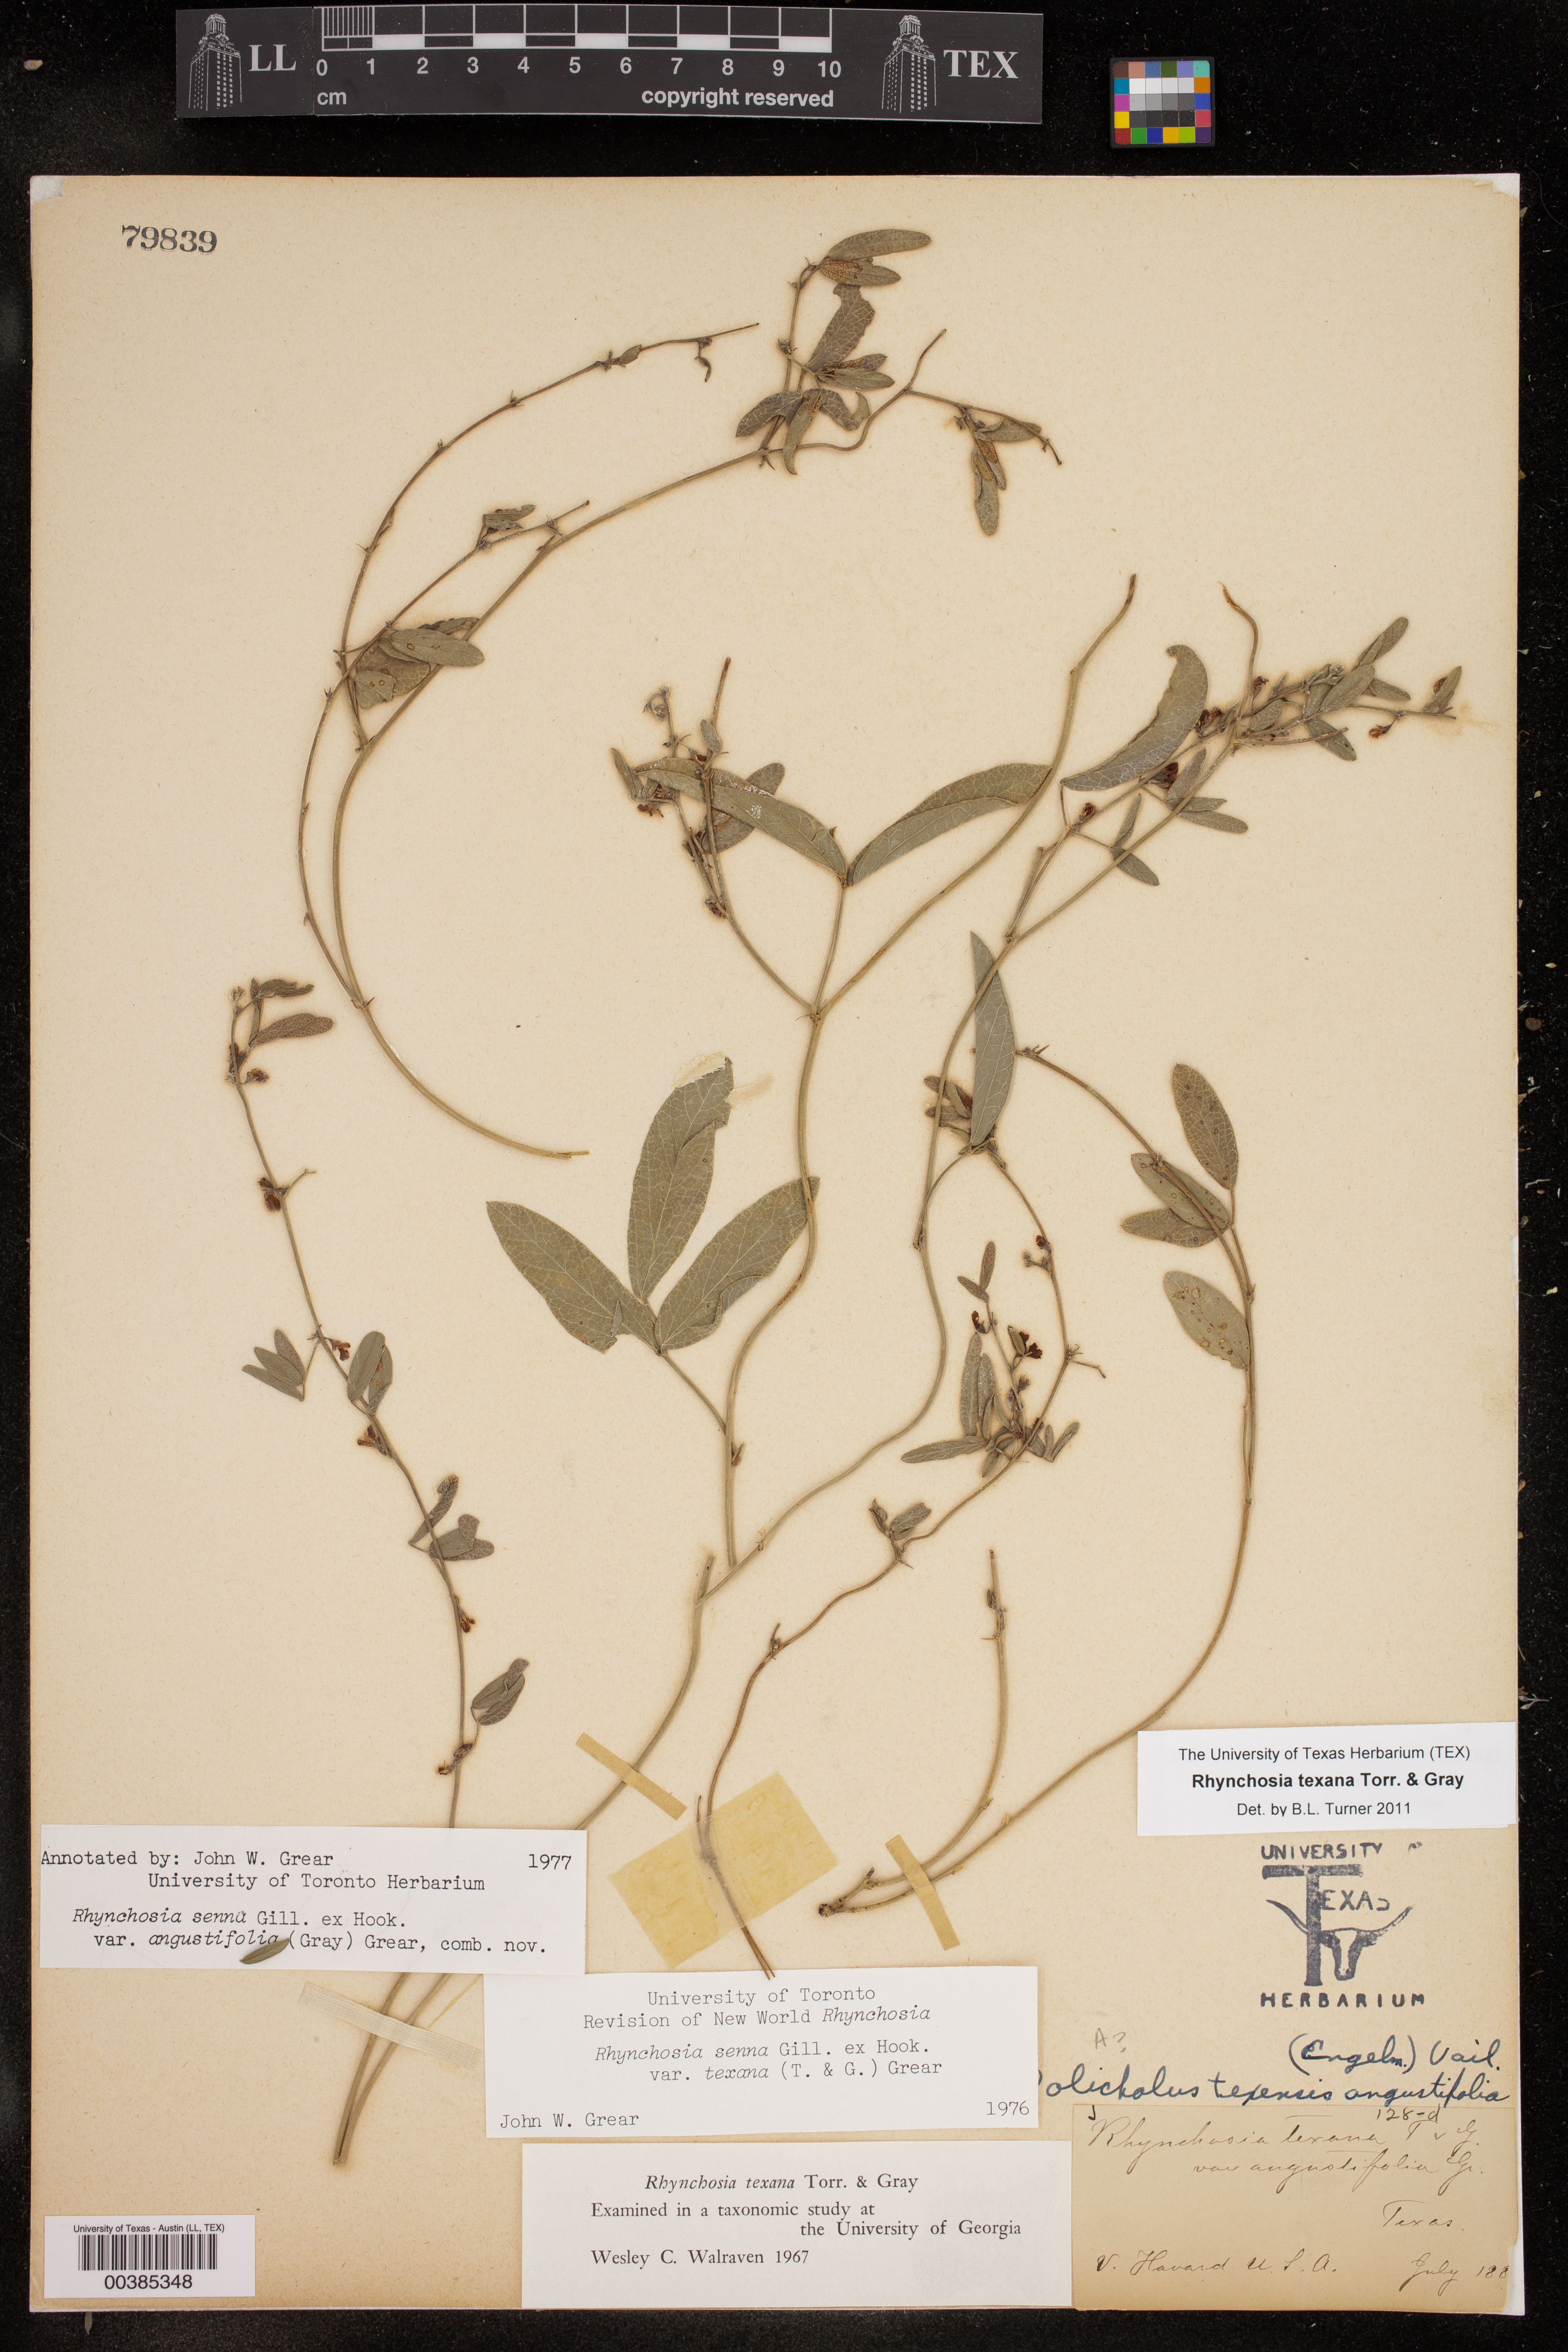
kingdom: Plantae
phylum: Tracheophyta
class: Magnoliopsida
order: Fabales
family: Fabaceae
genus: Rhynchosia
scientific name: Rhynchosia senna
